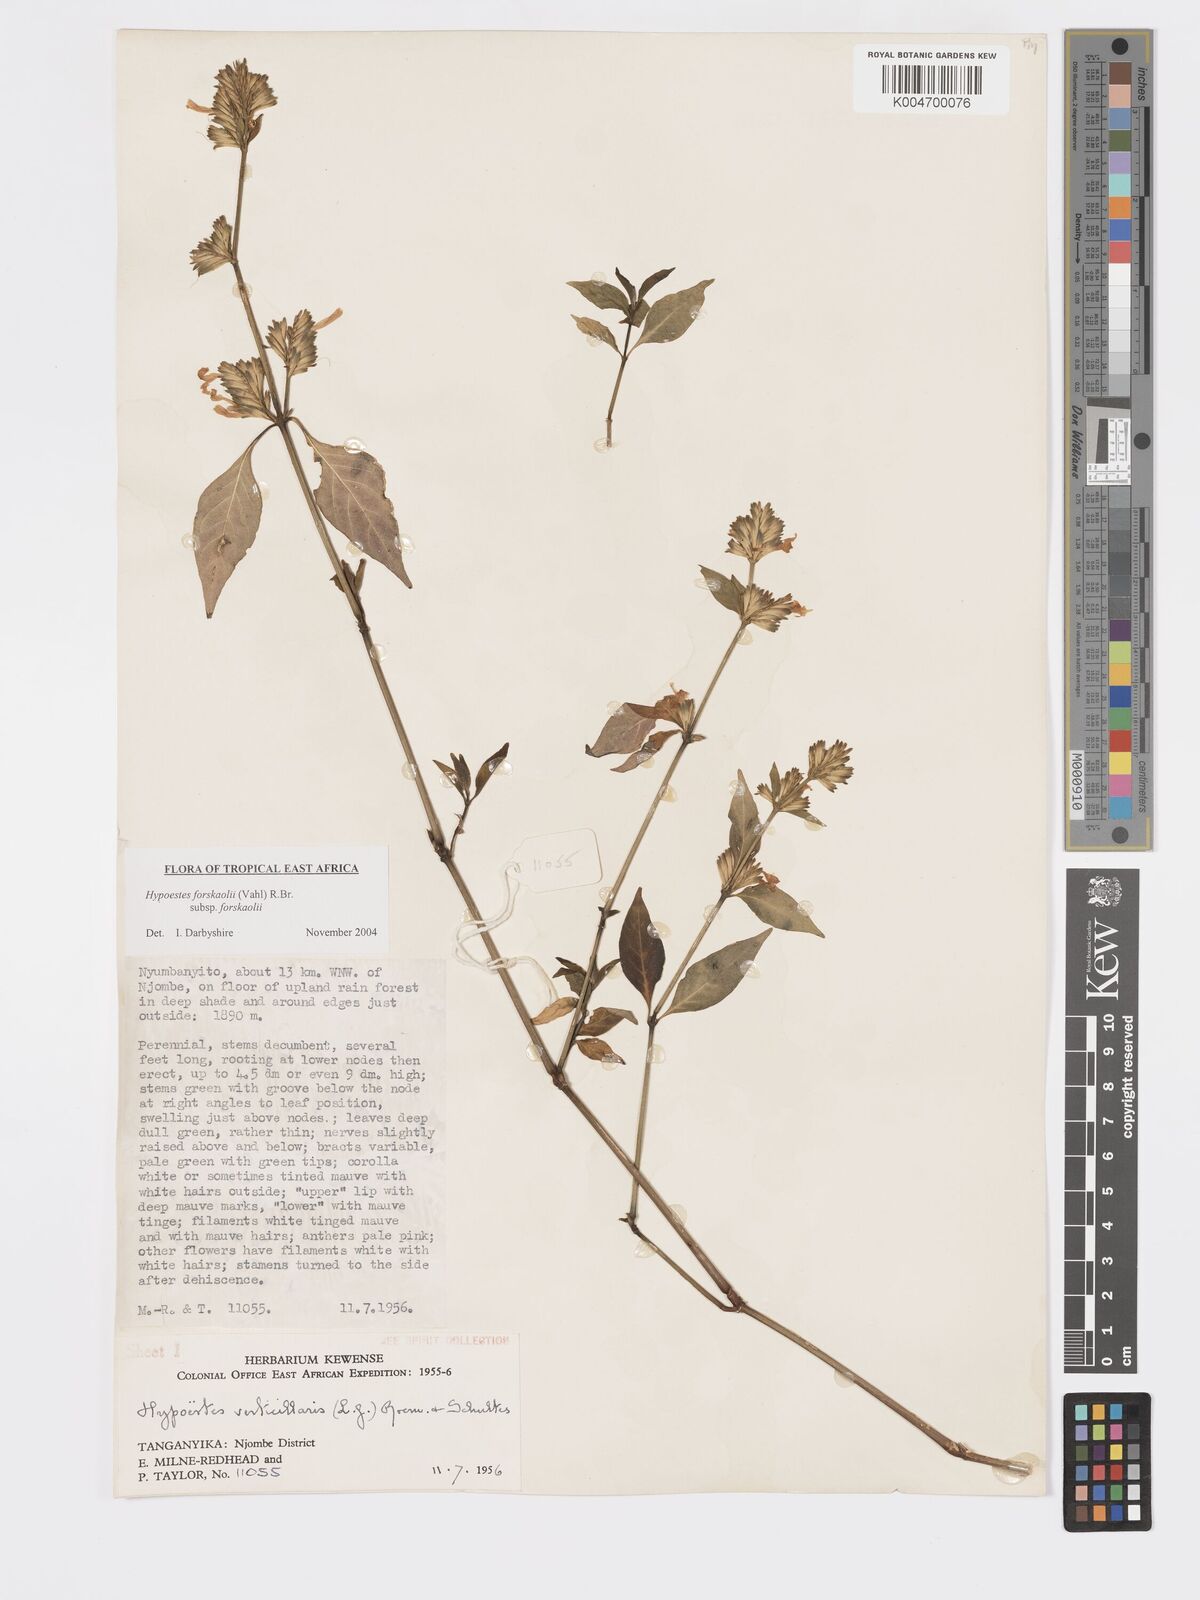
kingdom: Plantae
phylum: Tracheophyta
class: Magnoliopsida
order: Lamiales
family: Acanthaceae
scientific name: Acanthaceae
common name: Acanthaceae
